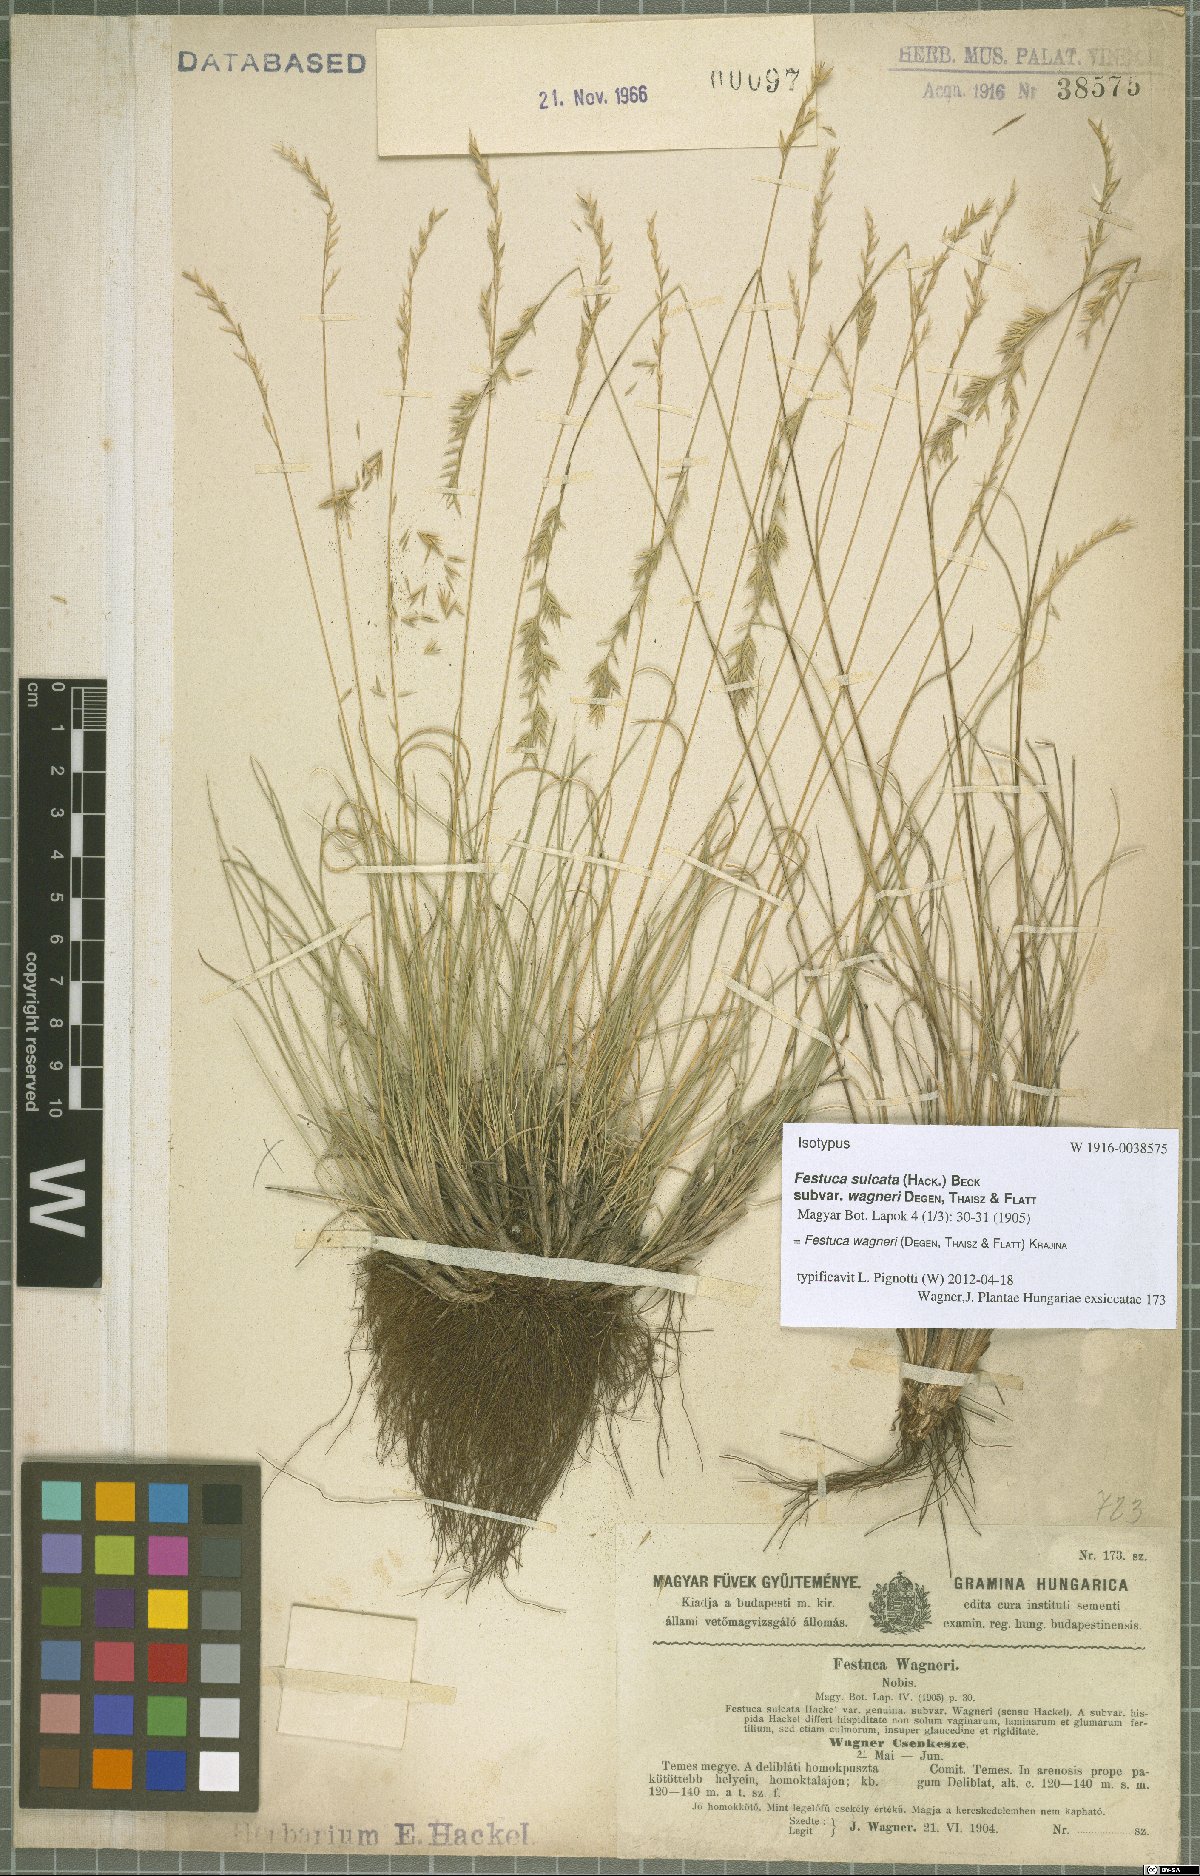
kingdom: Plantae
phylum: Tracheophyta
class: Liliopsida
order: Poales
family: Poaceae
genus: Festuca
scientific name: Festuca wagneri
